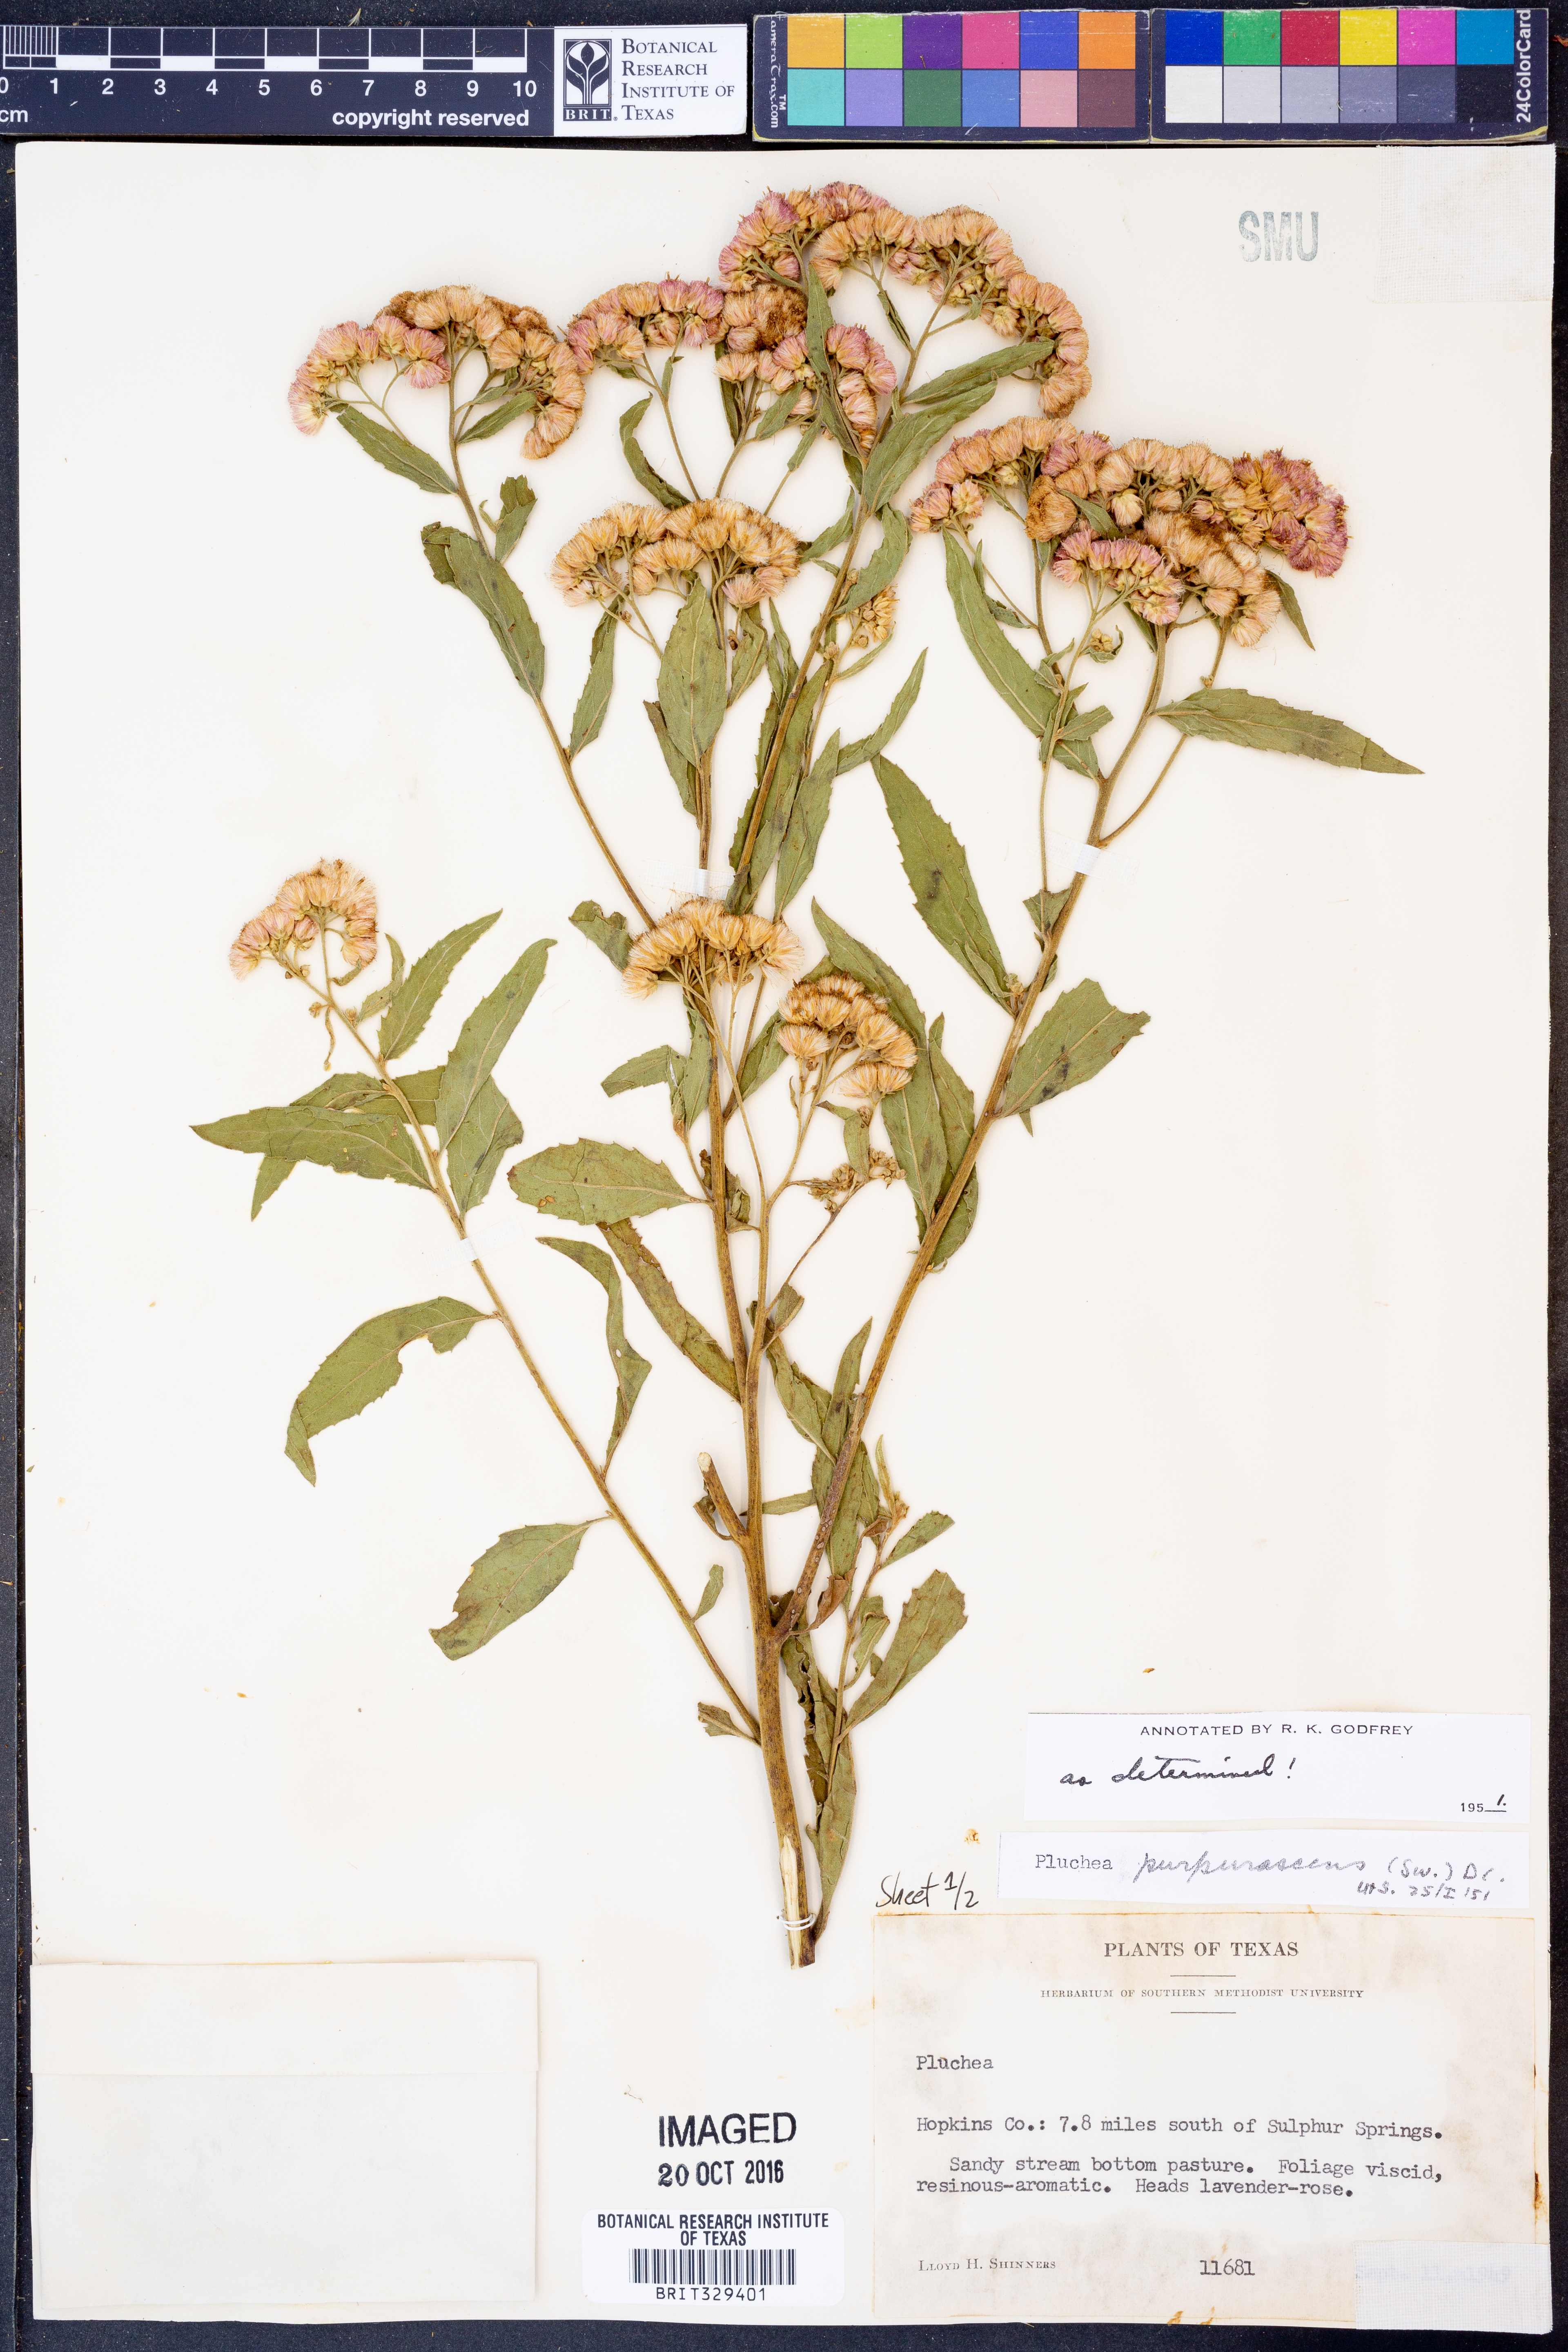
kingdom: Plantae
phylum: Tracheophyta
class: Magnoliopsida
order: Asterales
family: Asteraceae
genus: Pluchea
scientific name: Pluchea odorata
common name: Saltmarsh fleabane
